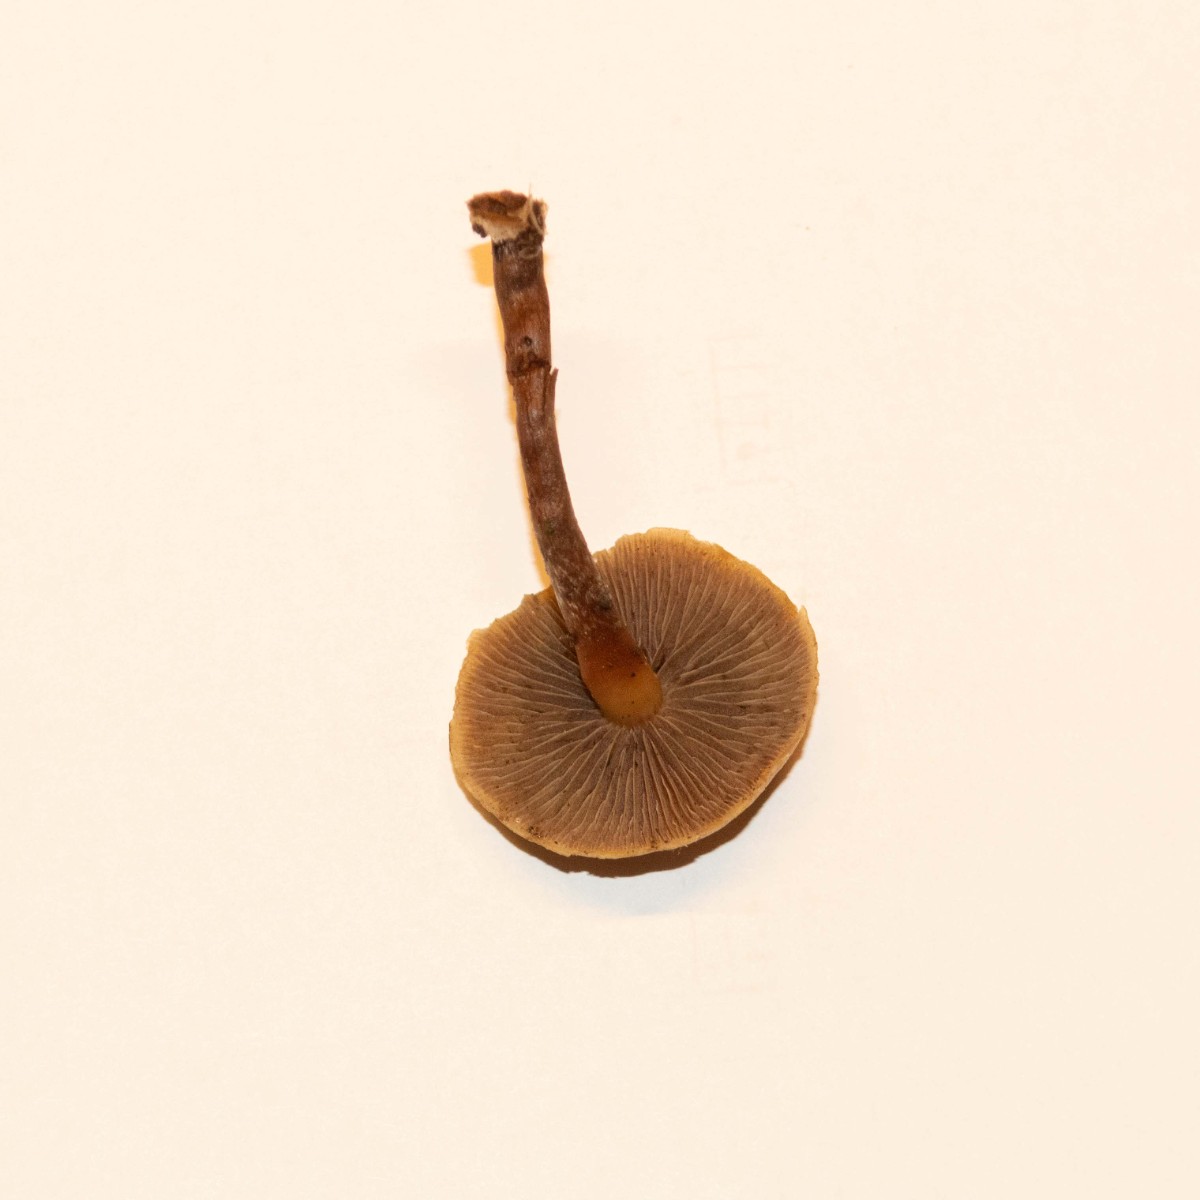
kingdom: Fungi
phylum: Basidiomycota
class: Agaricomycetes
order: Agaricales
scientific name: Agaricales
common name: champignonordenen
